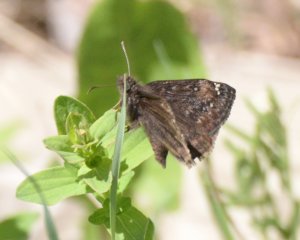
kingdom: Animalia
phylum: Arthropoda
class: Insecta
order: Lepidoptera
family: Hesperiidae
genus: Gesta
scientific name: Gesta
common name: Juvenal's Duskywing
